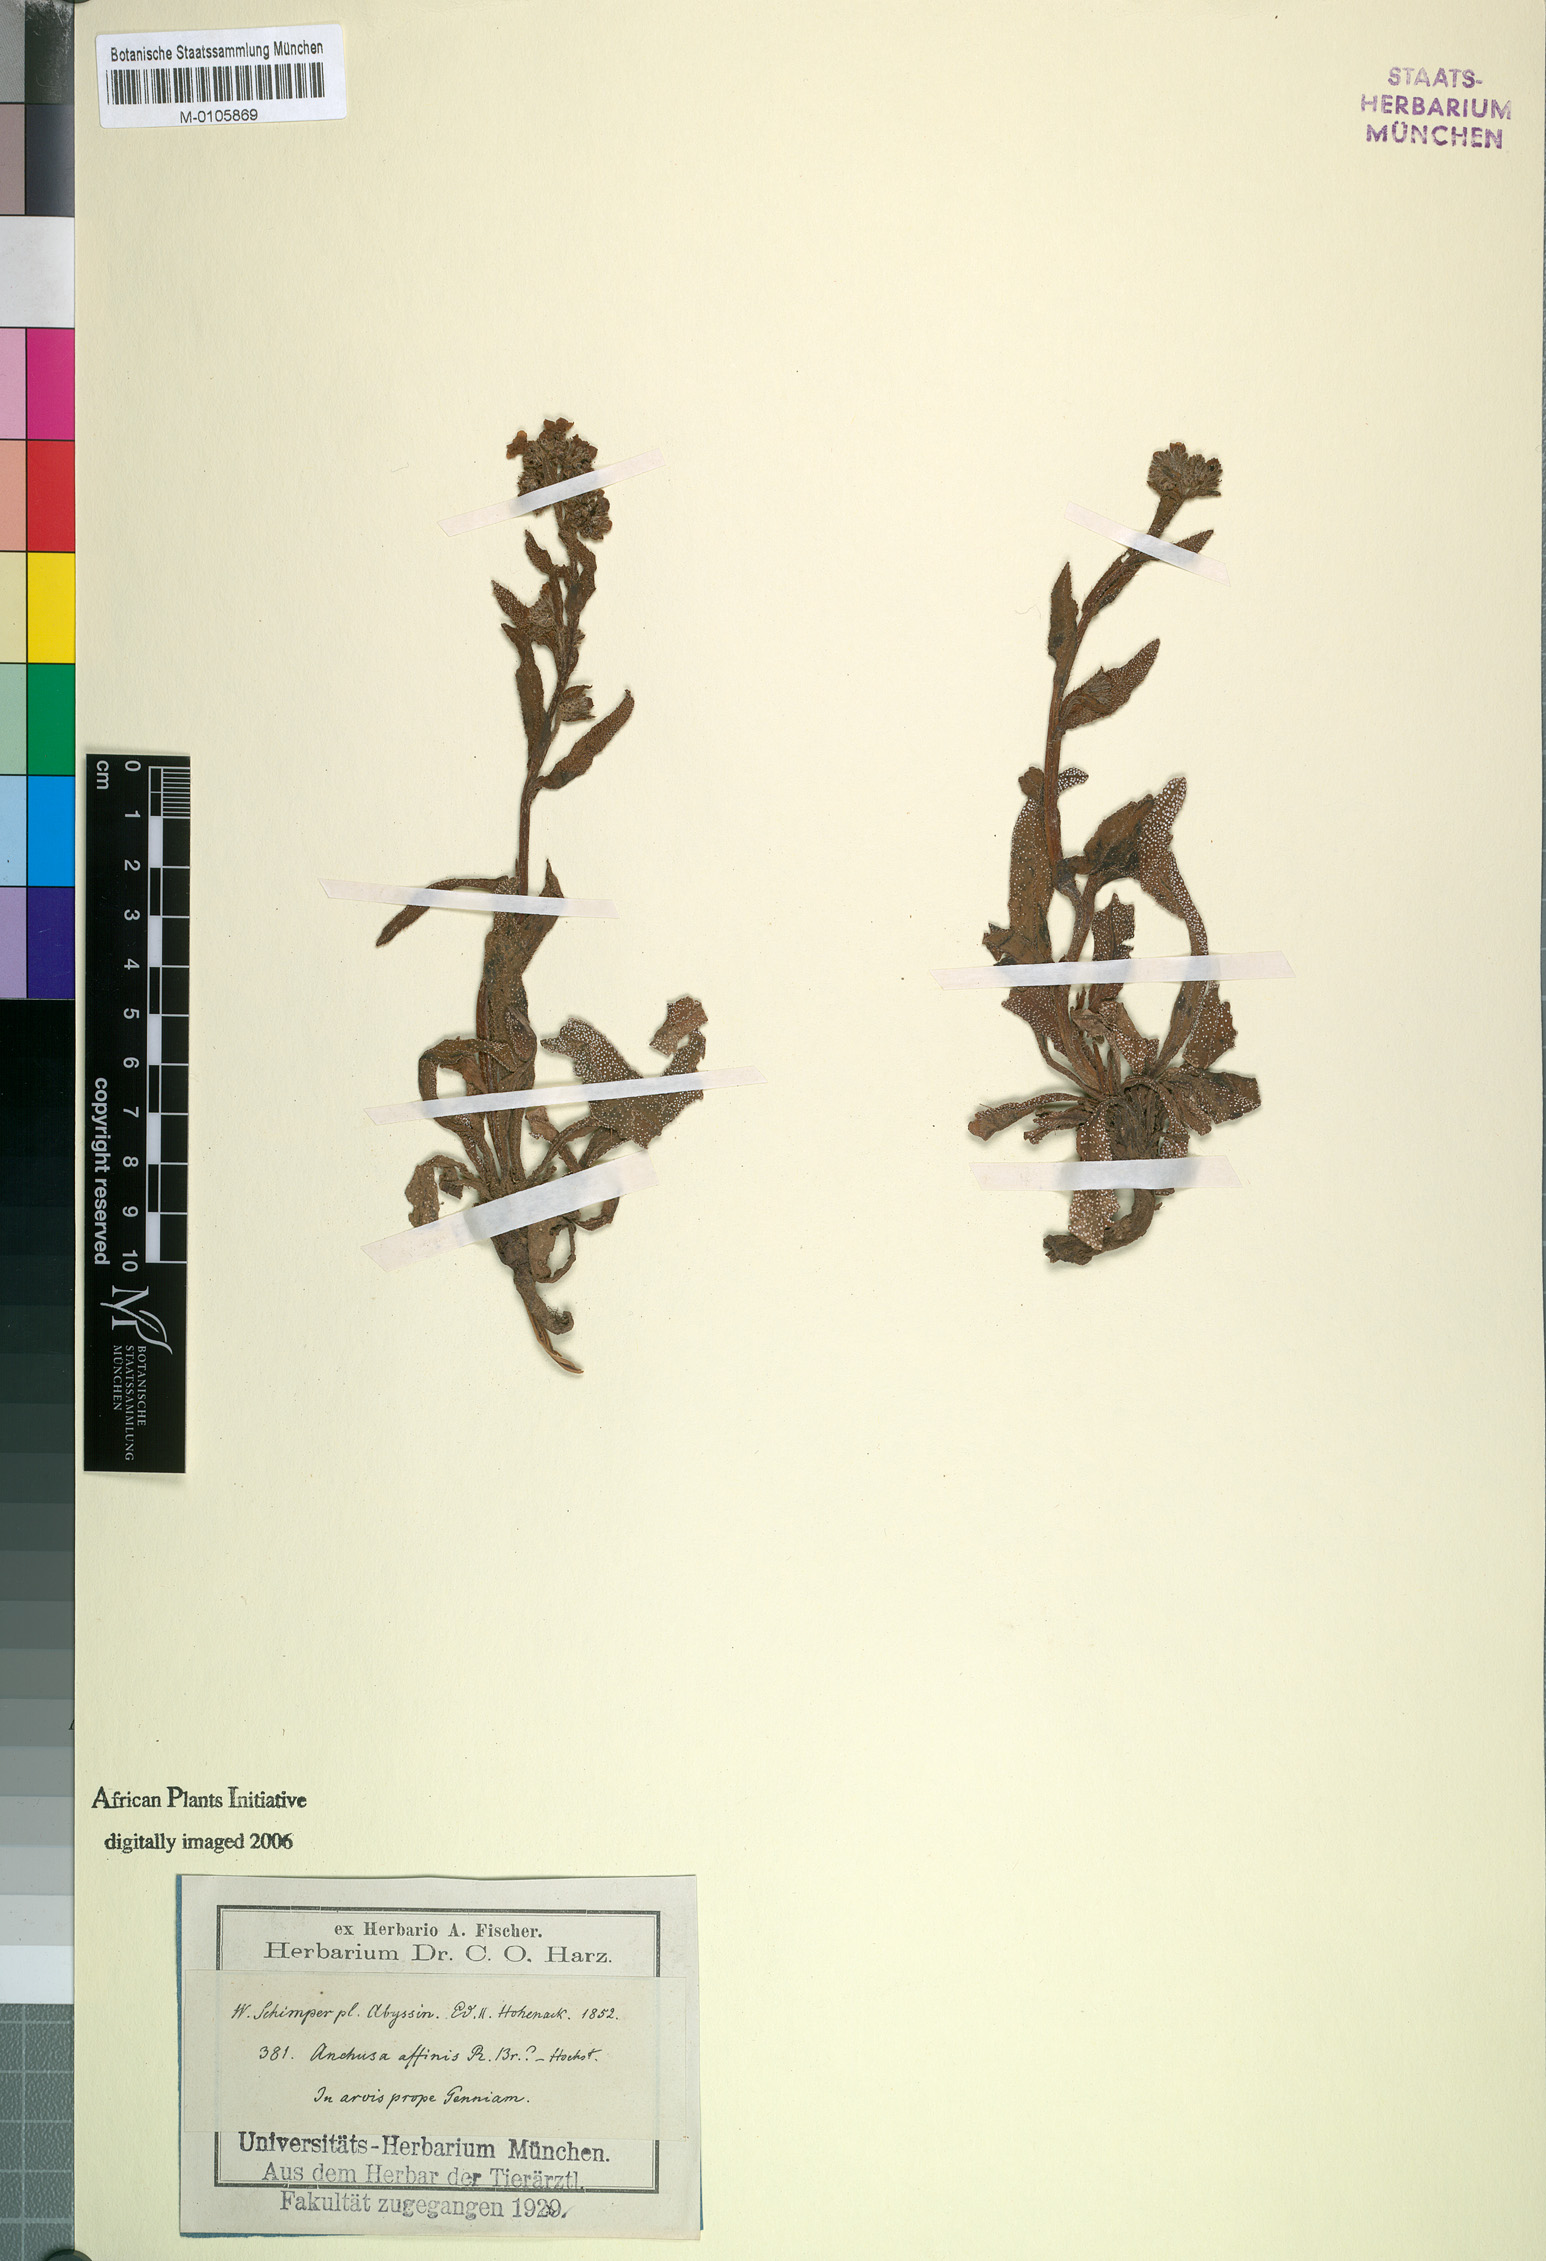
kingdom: Plantae
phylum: Tracheophyta
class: Magnoliopsida
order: Boraginales
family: Boraginaceae
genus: Anchusa
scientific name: Anchusa affinis
